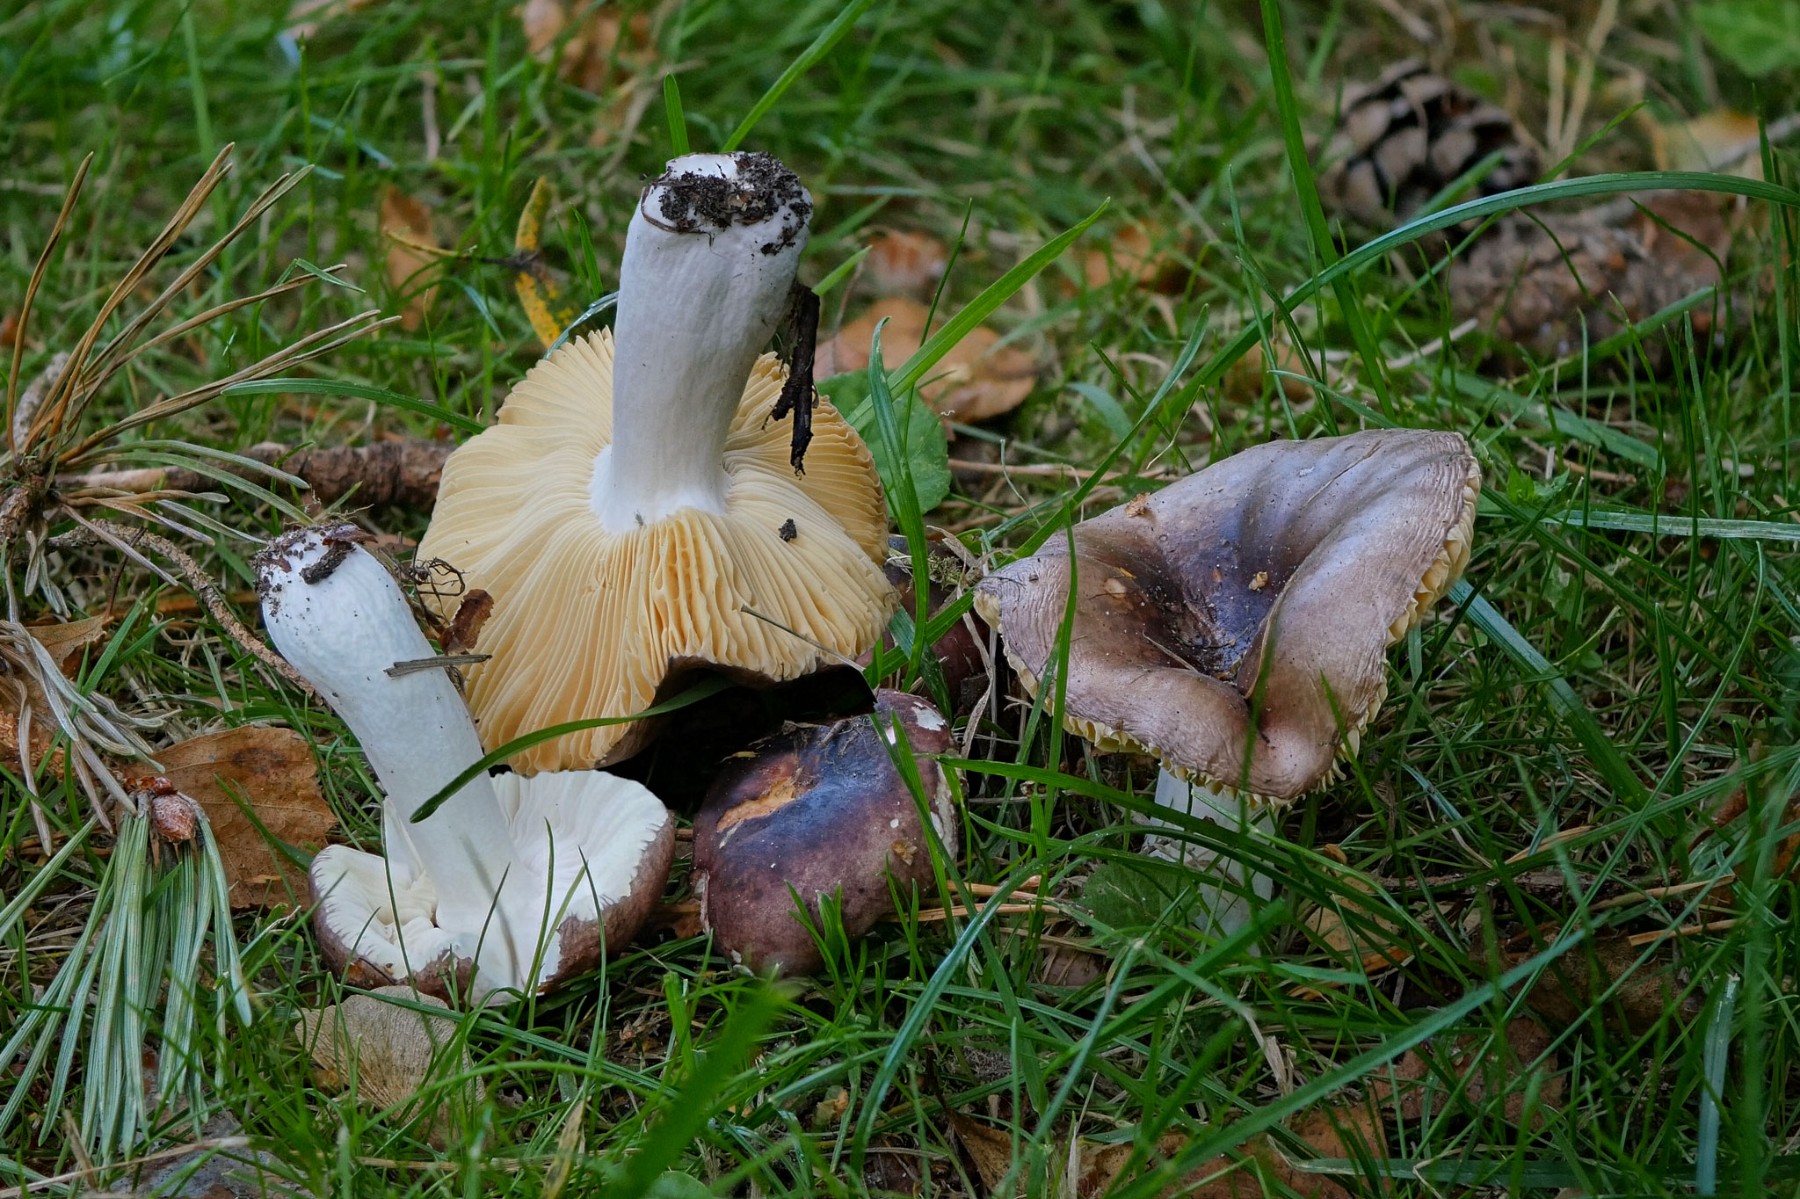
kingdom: Fungi
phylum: Basidiomycota
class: Agaricomycetes
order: Russulales
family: Russulaceae
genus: Russula
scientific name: Russula cessans
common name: fyrre-skørhat
